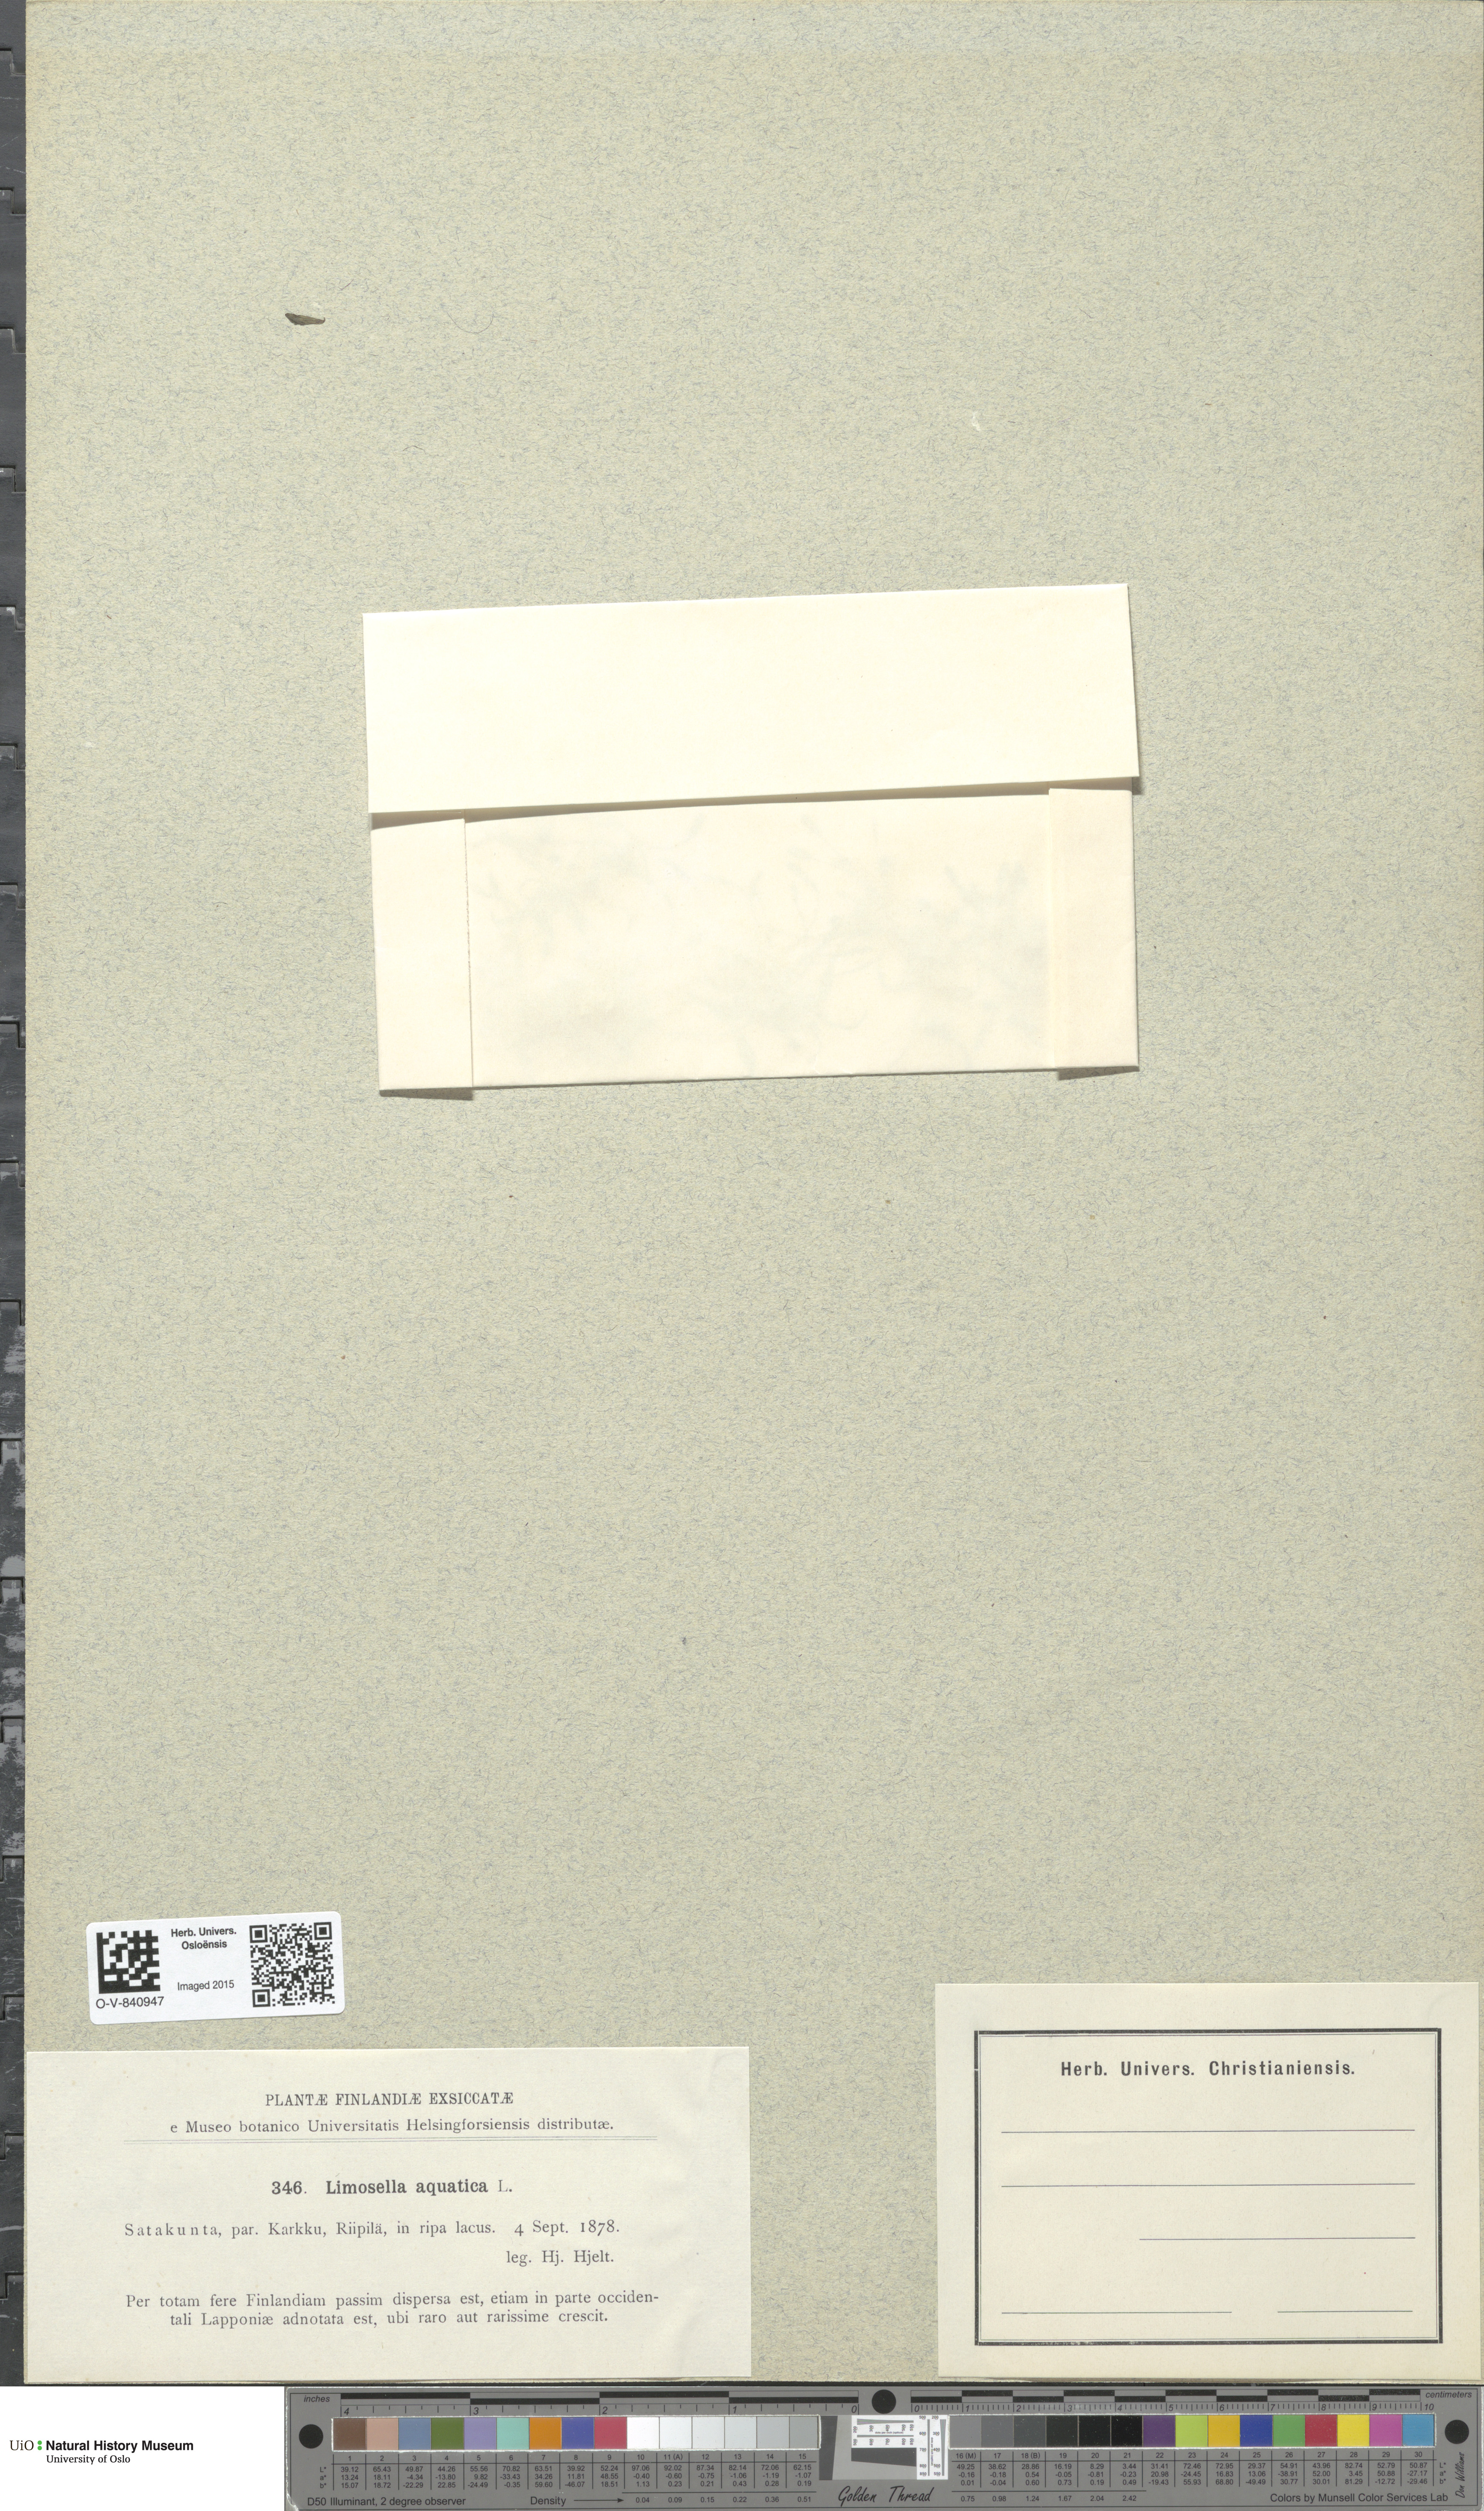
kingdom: Plantae
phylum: Tracheophyta
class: Magnoliopsida
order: Lamiales
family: Scrophulariaceae
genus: Limosella
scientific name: Limosella aquatica
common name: Mudwort
